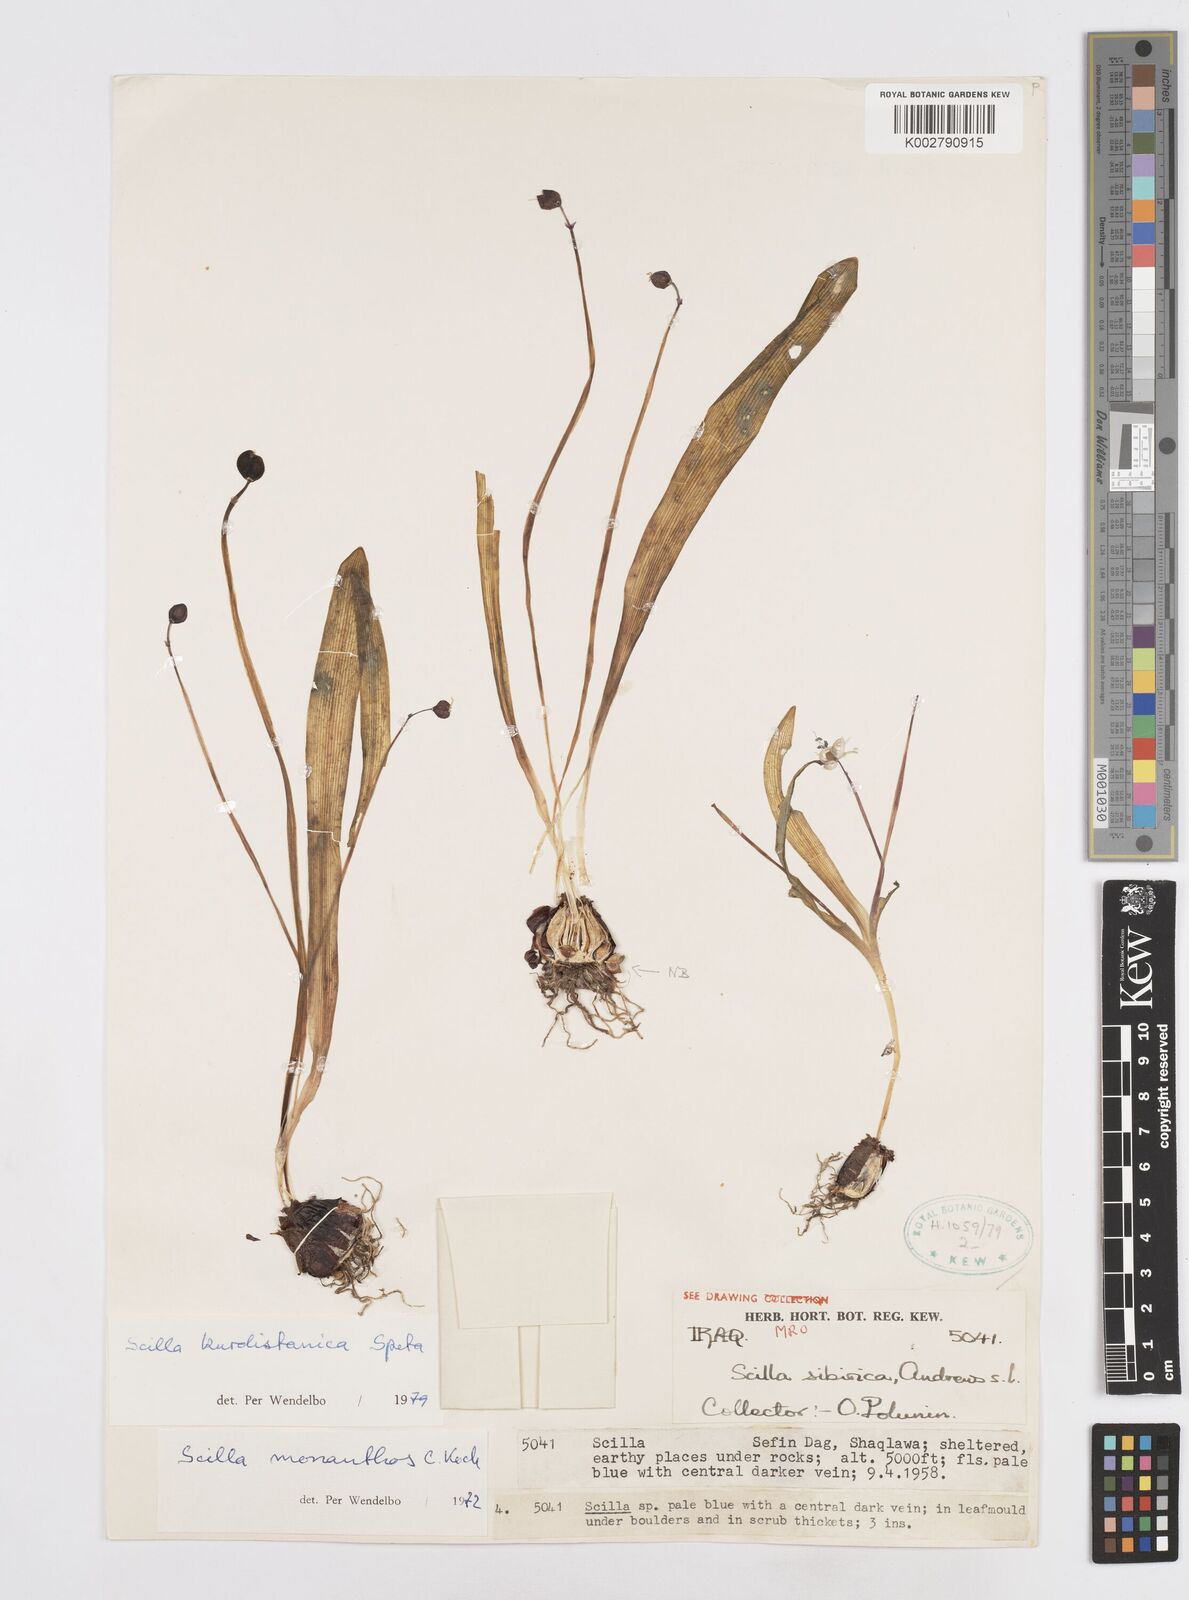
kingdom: Plantae
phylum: Tracheophyta
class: Liliopsida
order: Asparagales
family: Asparagaceae
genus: Scilla
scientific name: Scilla kurdistanica
